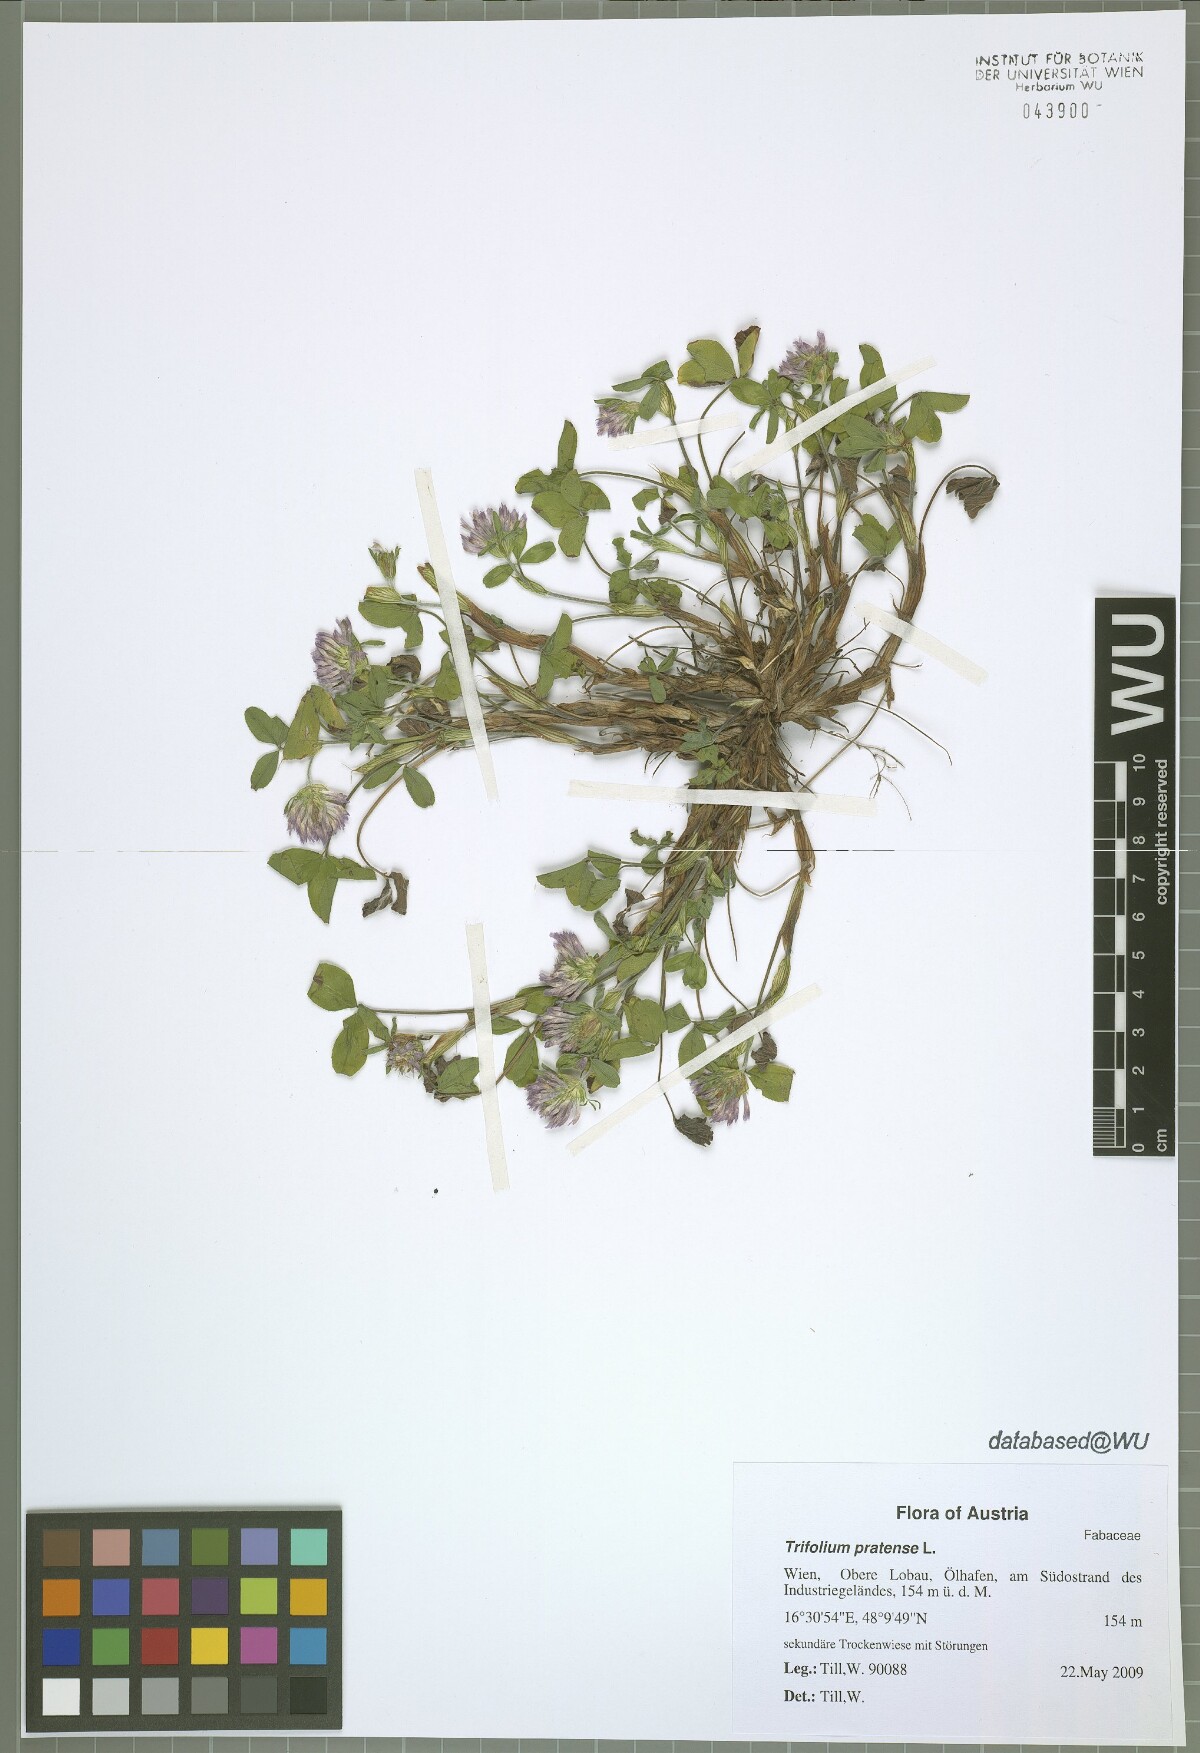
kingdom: Plantae
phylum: Tracheophyta
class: Magnoliopsida
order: Fabales
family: Fabaceae
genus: Trifolium
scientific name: Trifolium pratense
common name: Red clover
